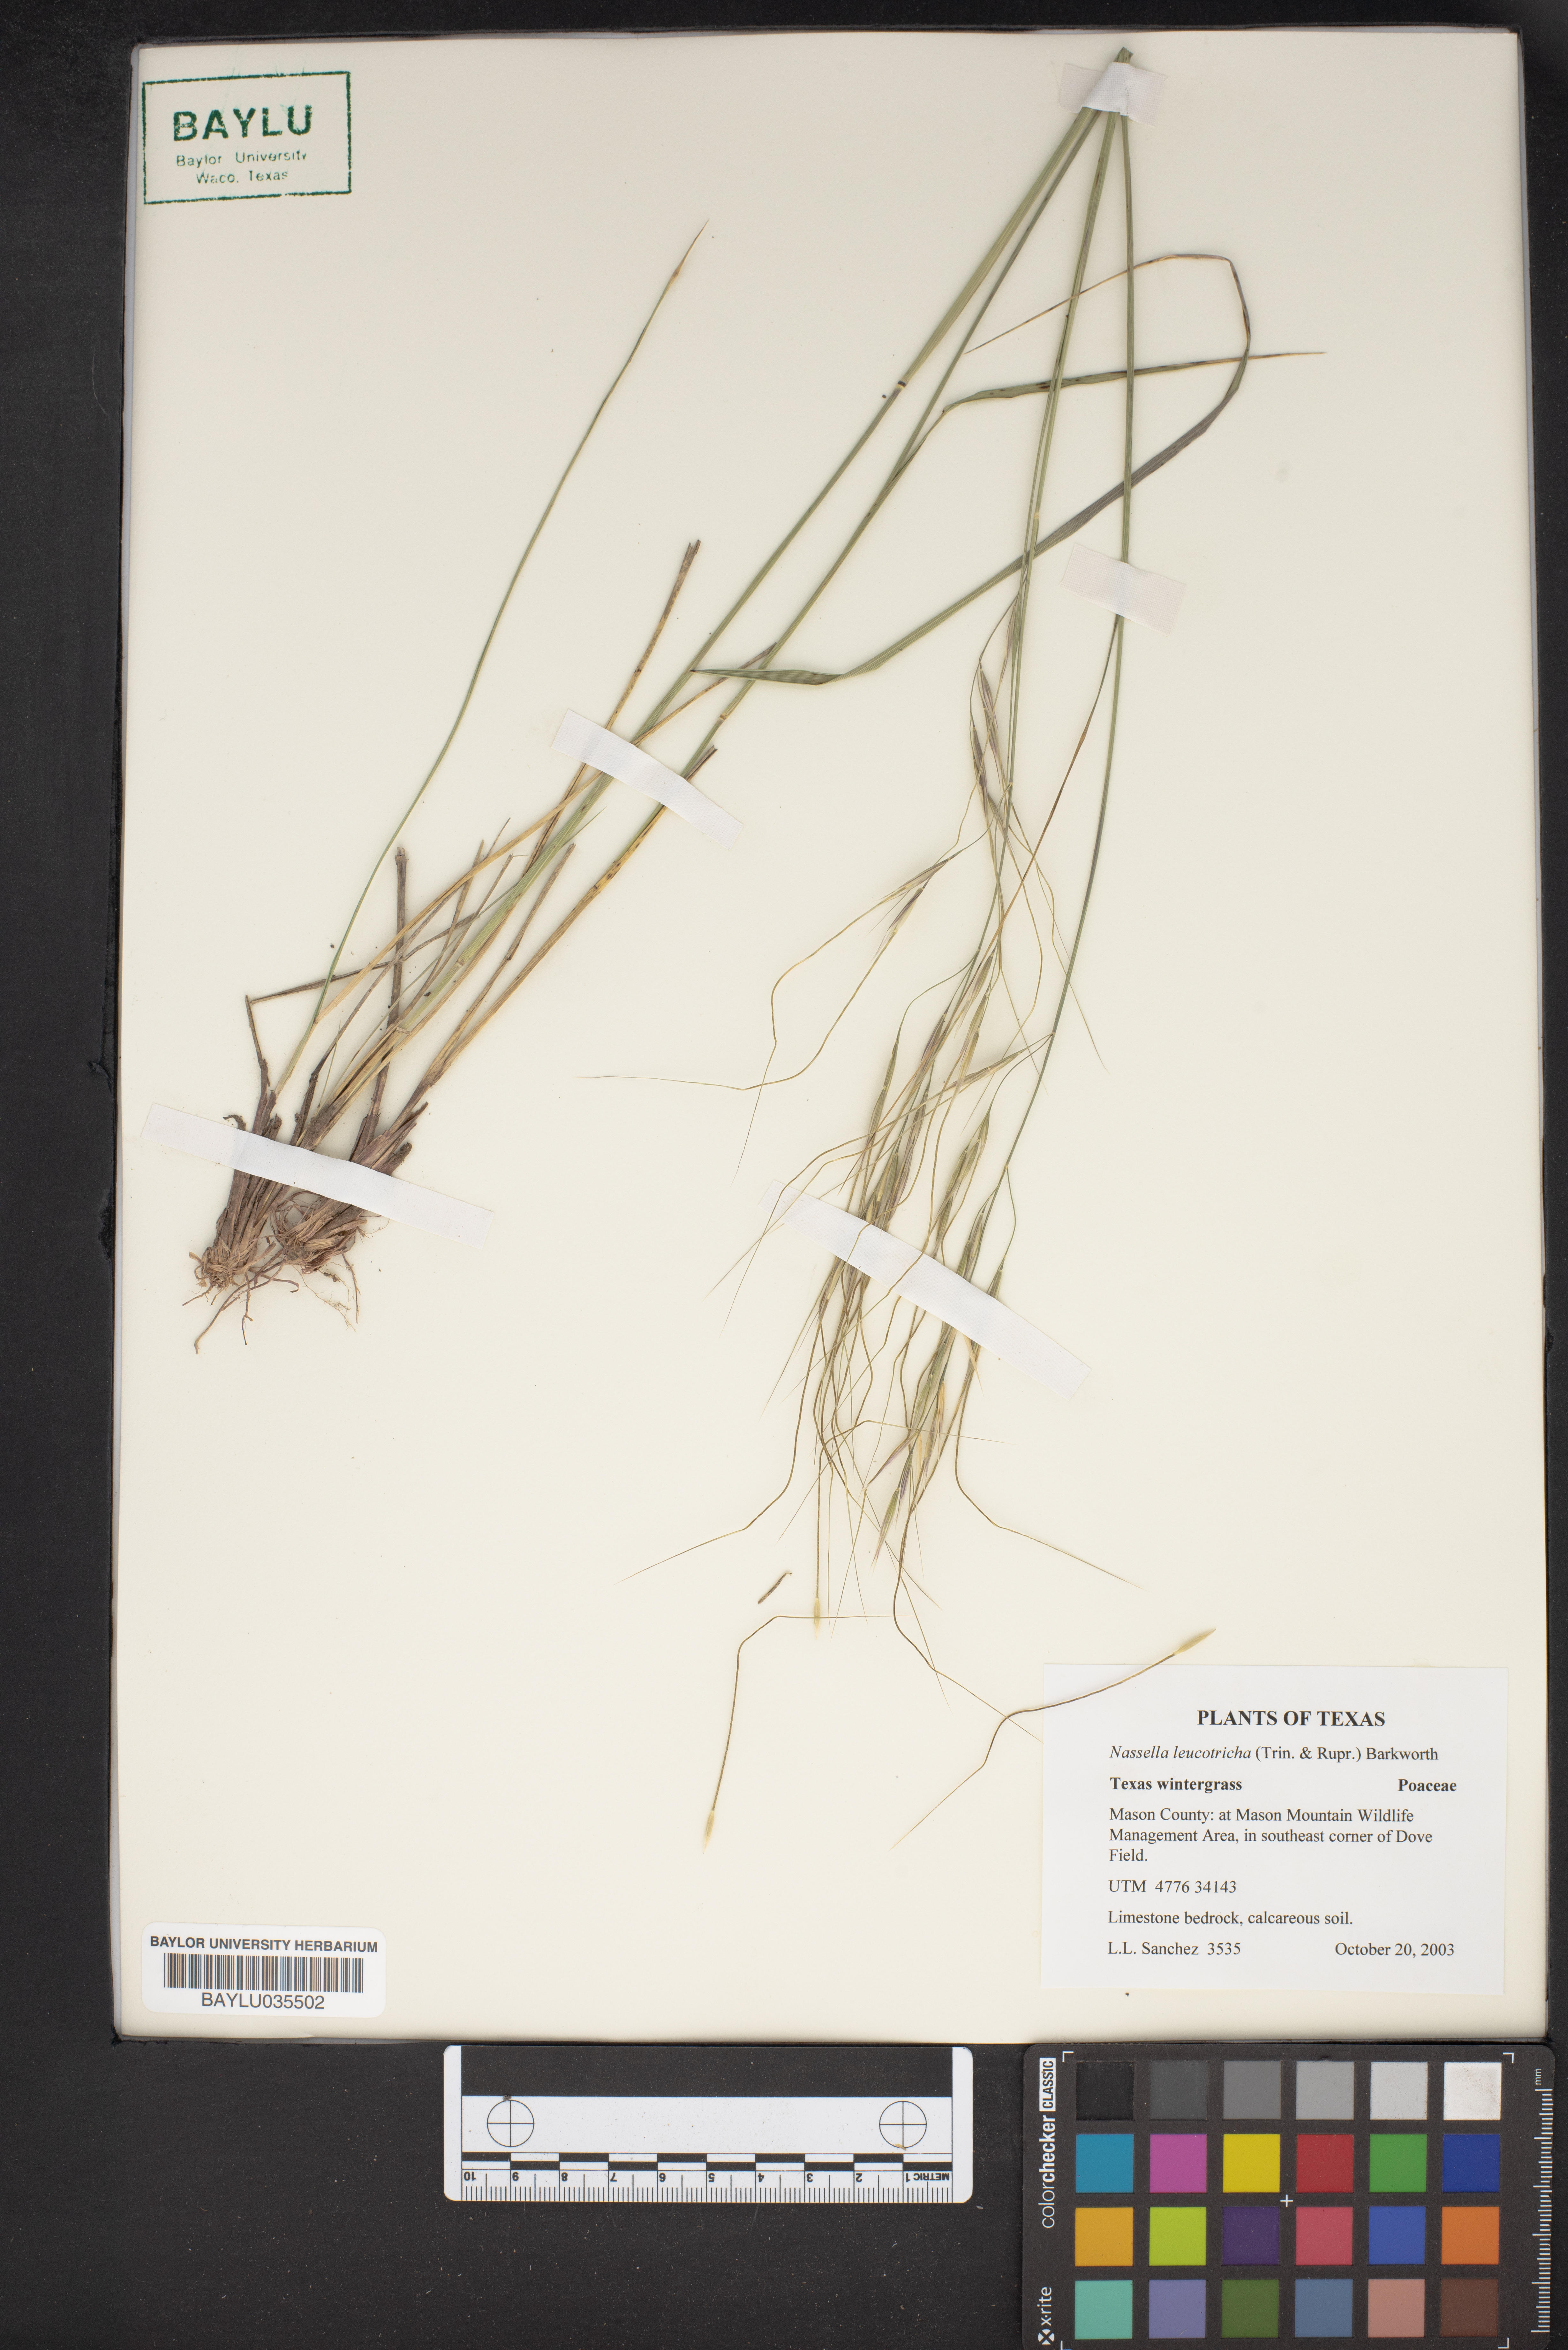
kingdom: Plantae
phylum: Tracheophyta
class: Liliopsida
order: Poales
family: Poaceae
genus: Nassella
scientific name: Nassella leucotricha
